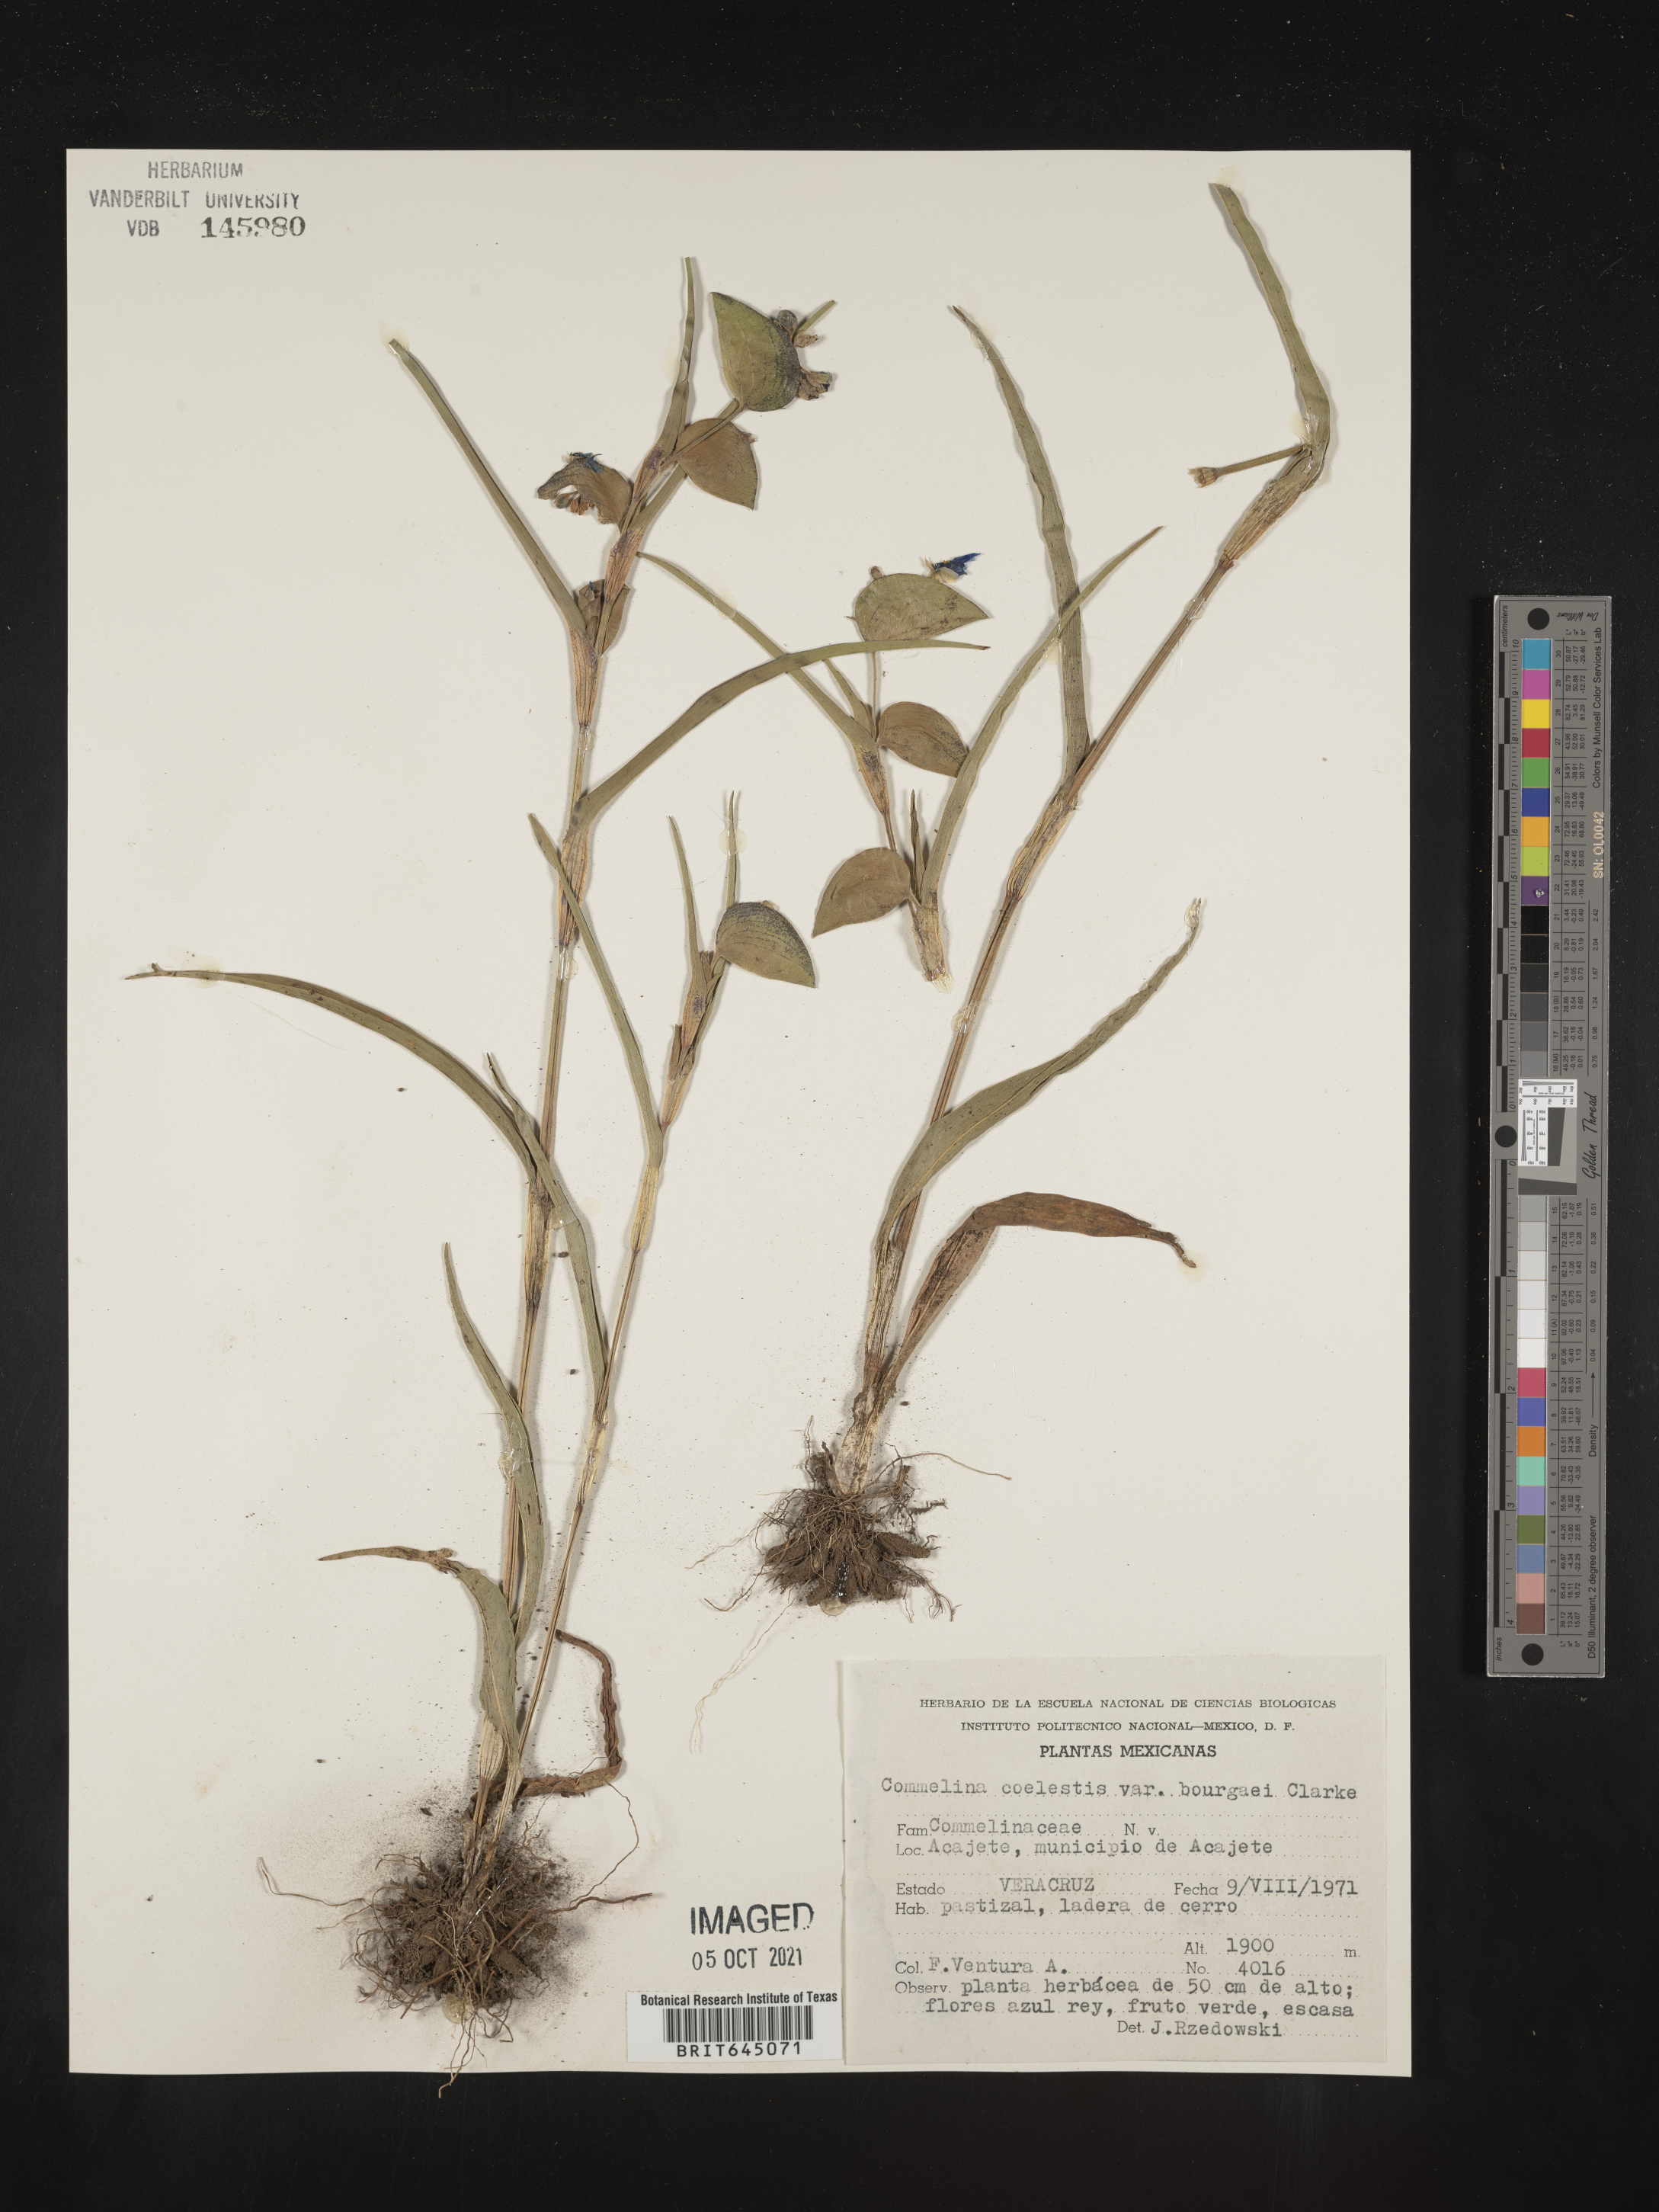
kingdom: Plantae
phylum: Tracheophyta
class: Liliopsida
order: Commelinales
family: Commelinaceae
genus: Commelina
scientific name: Commelina
